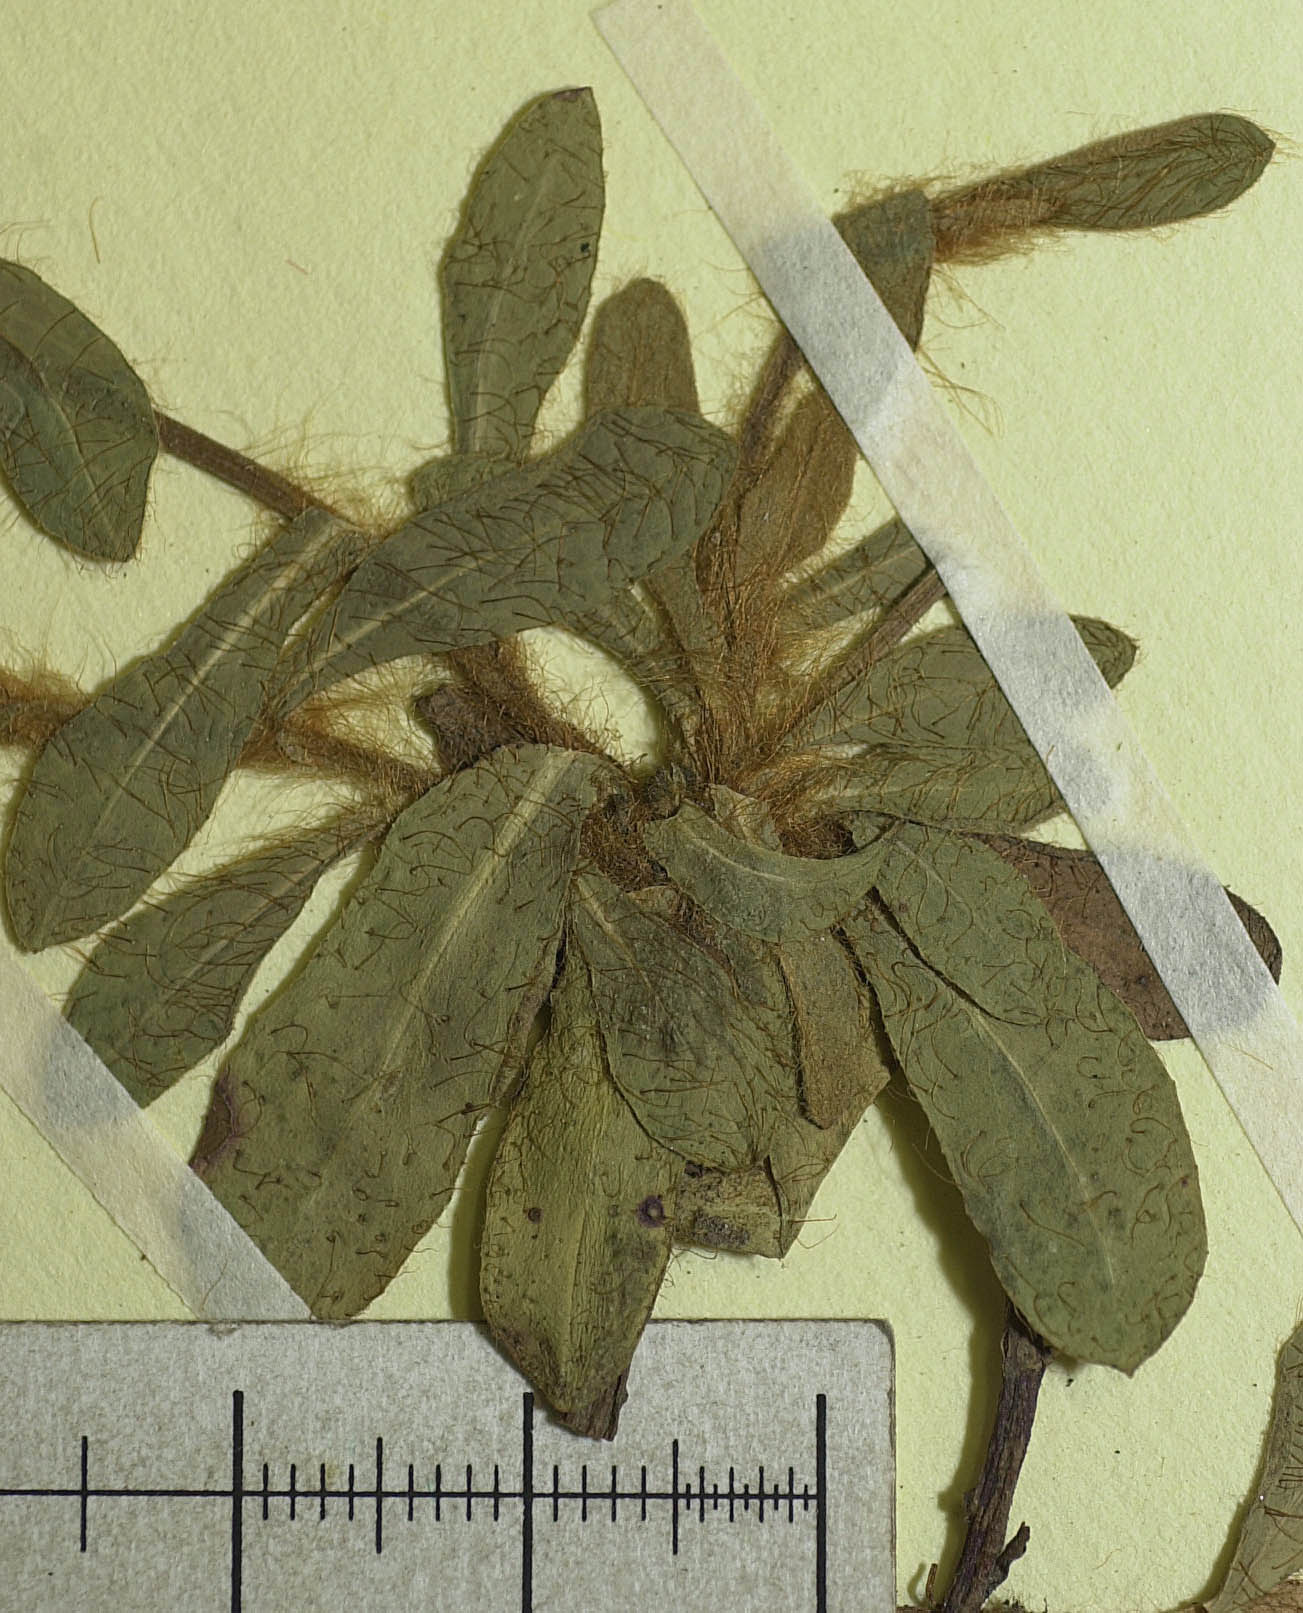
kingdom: Plantae
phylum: Tracheophyta
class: Magnoliopsida
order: Asterales
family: Asteraceae
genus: Pilosella
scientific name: Pilosella viridifolia
